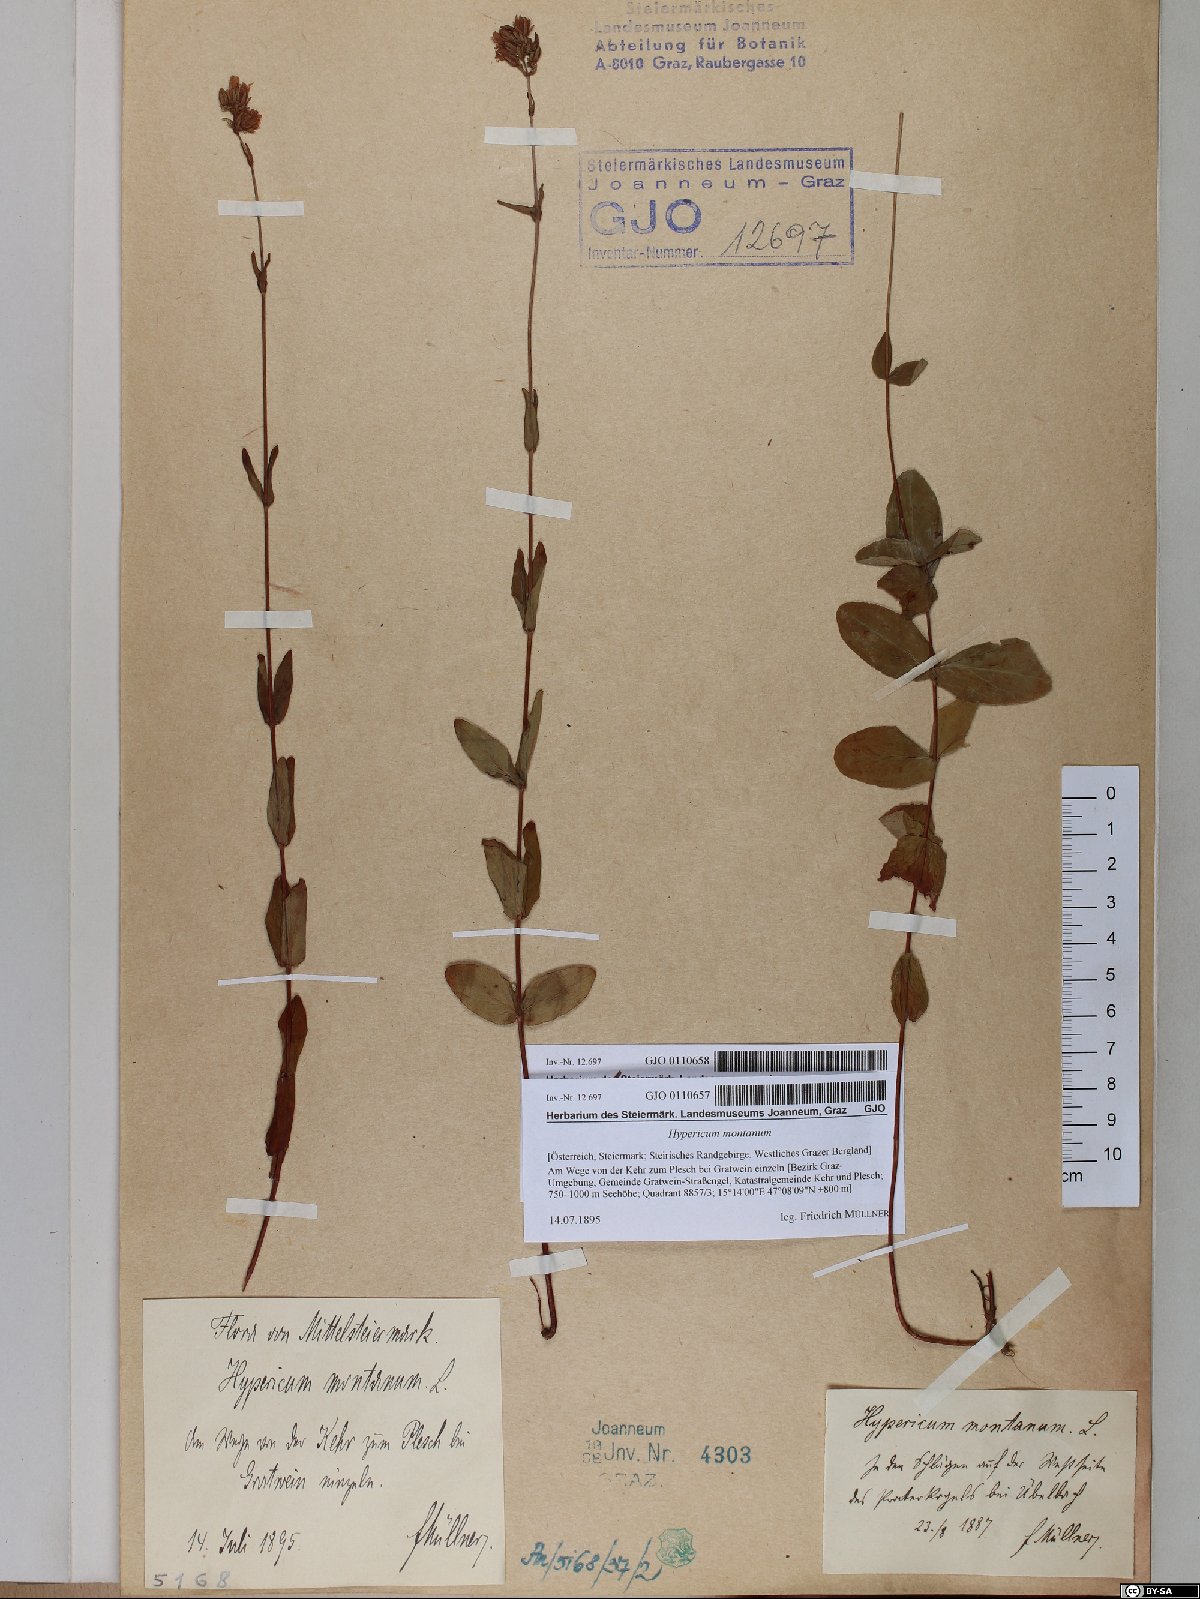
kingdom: Plantae
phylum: Tracheophyta
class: Magnoliopsida
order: Malpighiales
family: Hypericaceae
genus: Hypericum
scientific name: Hypericum montanum
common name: Pale st. john's-wort
